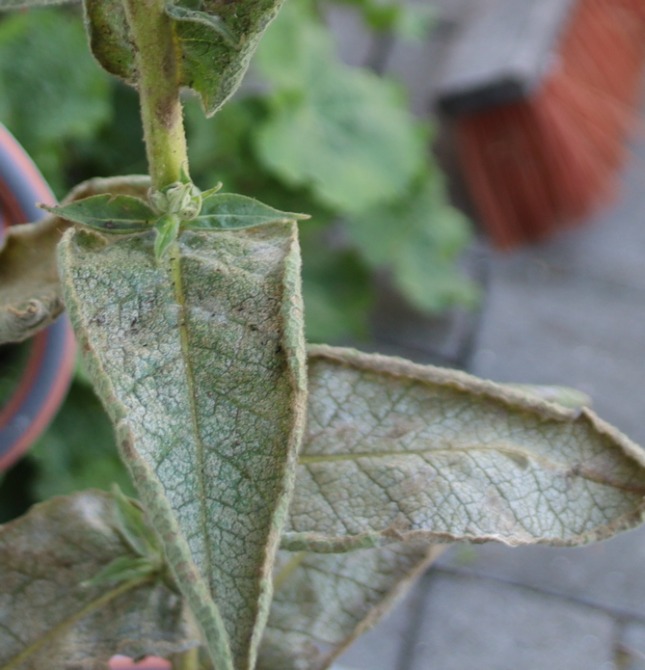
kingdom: Plantae
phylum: Tracheophyta
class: Magnoliopsida
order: Lamiales
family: Scrophulariaceae
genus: Verbascum
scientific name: Verbascum phlomoides
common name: Hjertebladet kongelys
